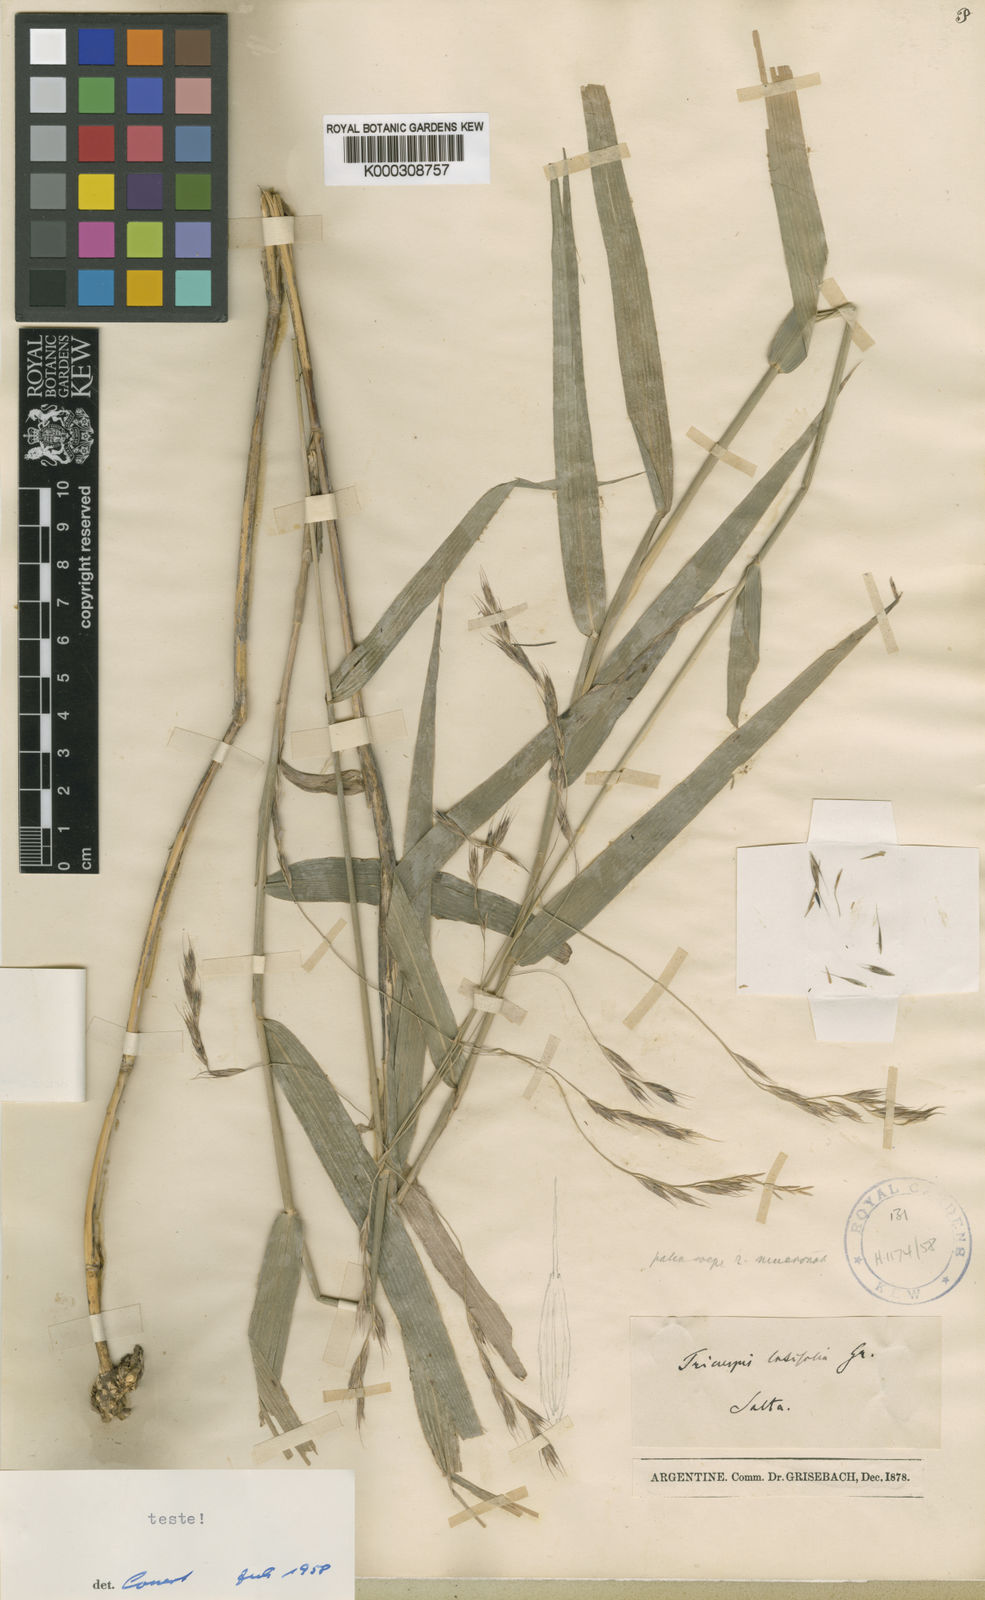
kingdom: Plantae
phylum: Tracheophyta
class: Liliopsida
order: Poales
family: Poaceae
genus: Gouinia
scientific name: Gouinia latifolia
